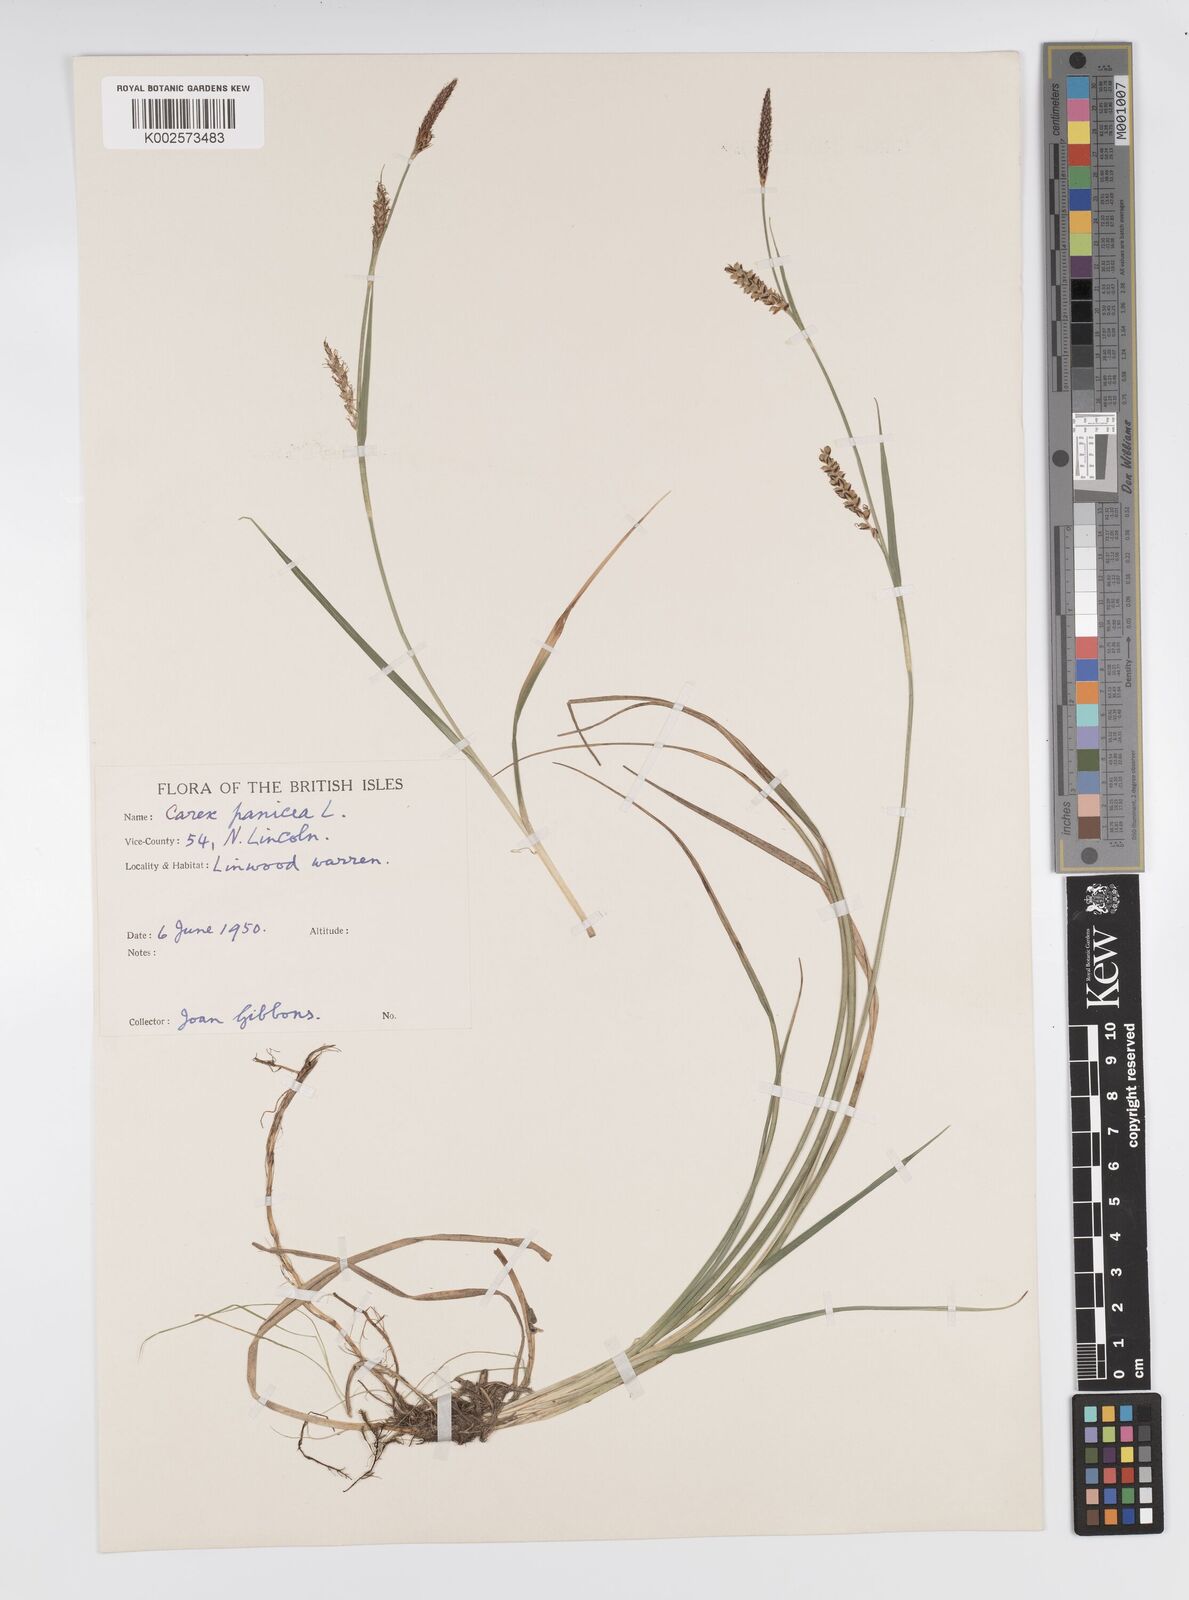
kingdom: Plantae
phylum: Tracheophyta
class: Liliopsida
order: Poales
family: Cyperaceae
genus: Carex
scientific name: Carex panicea
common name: Carnation sedge
